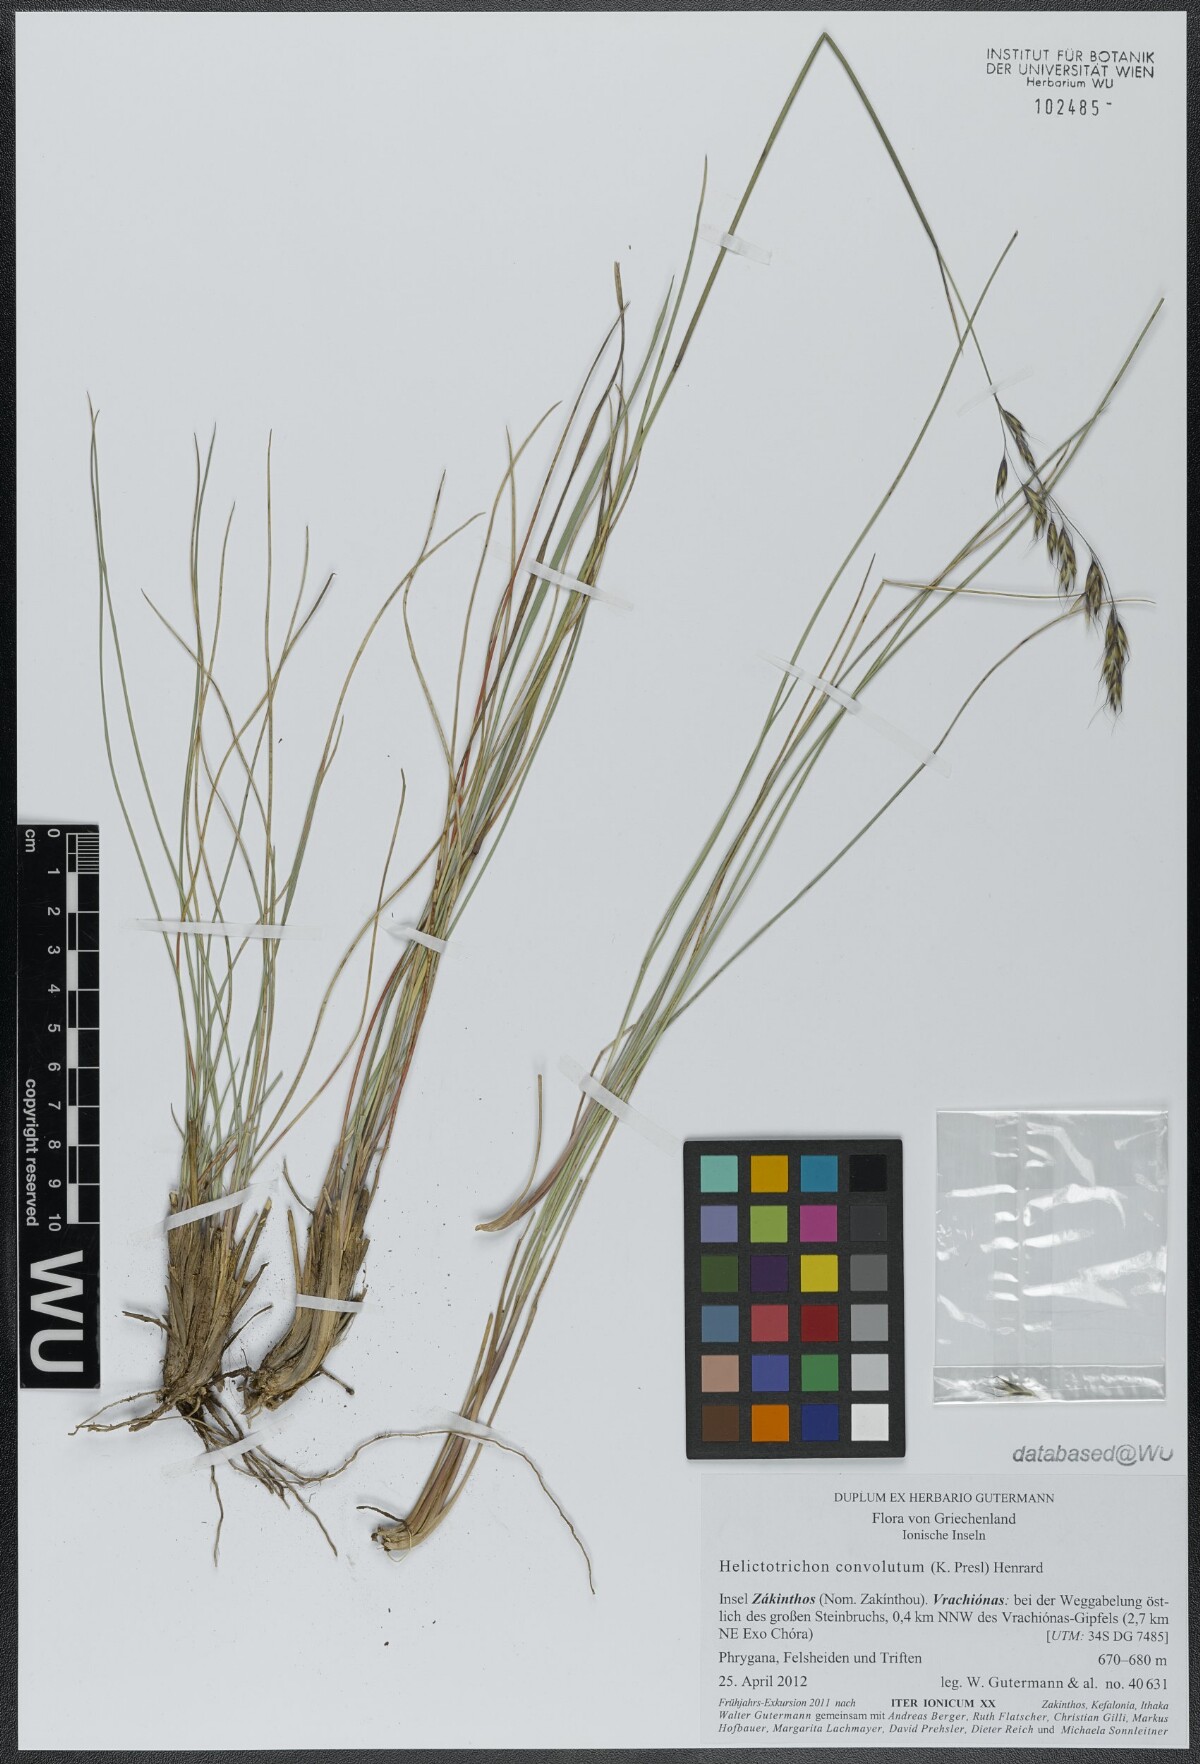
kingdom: Plantae
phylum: Tracheophyta
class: Liliopsida
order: Poales
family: Poaceae
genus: Helictotrichon
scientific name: Helictotrichon convolutum
